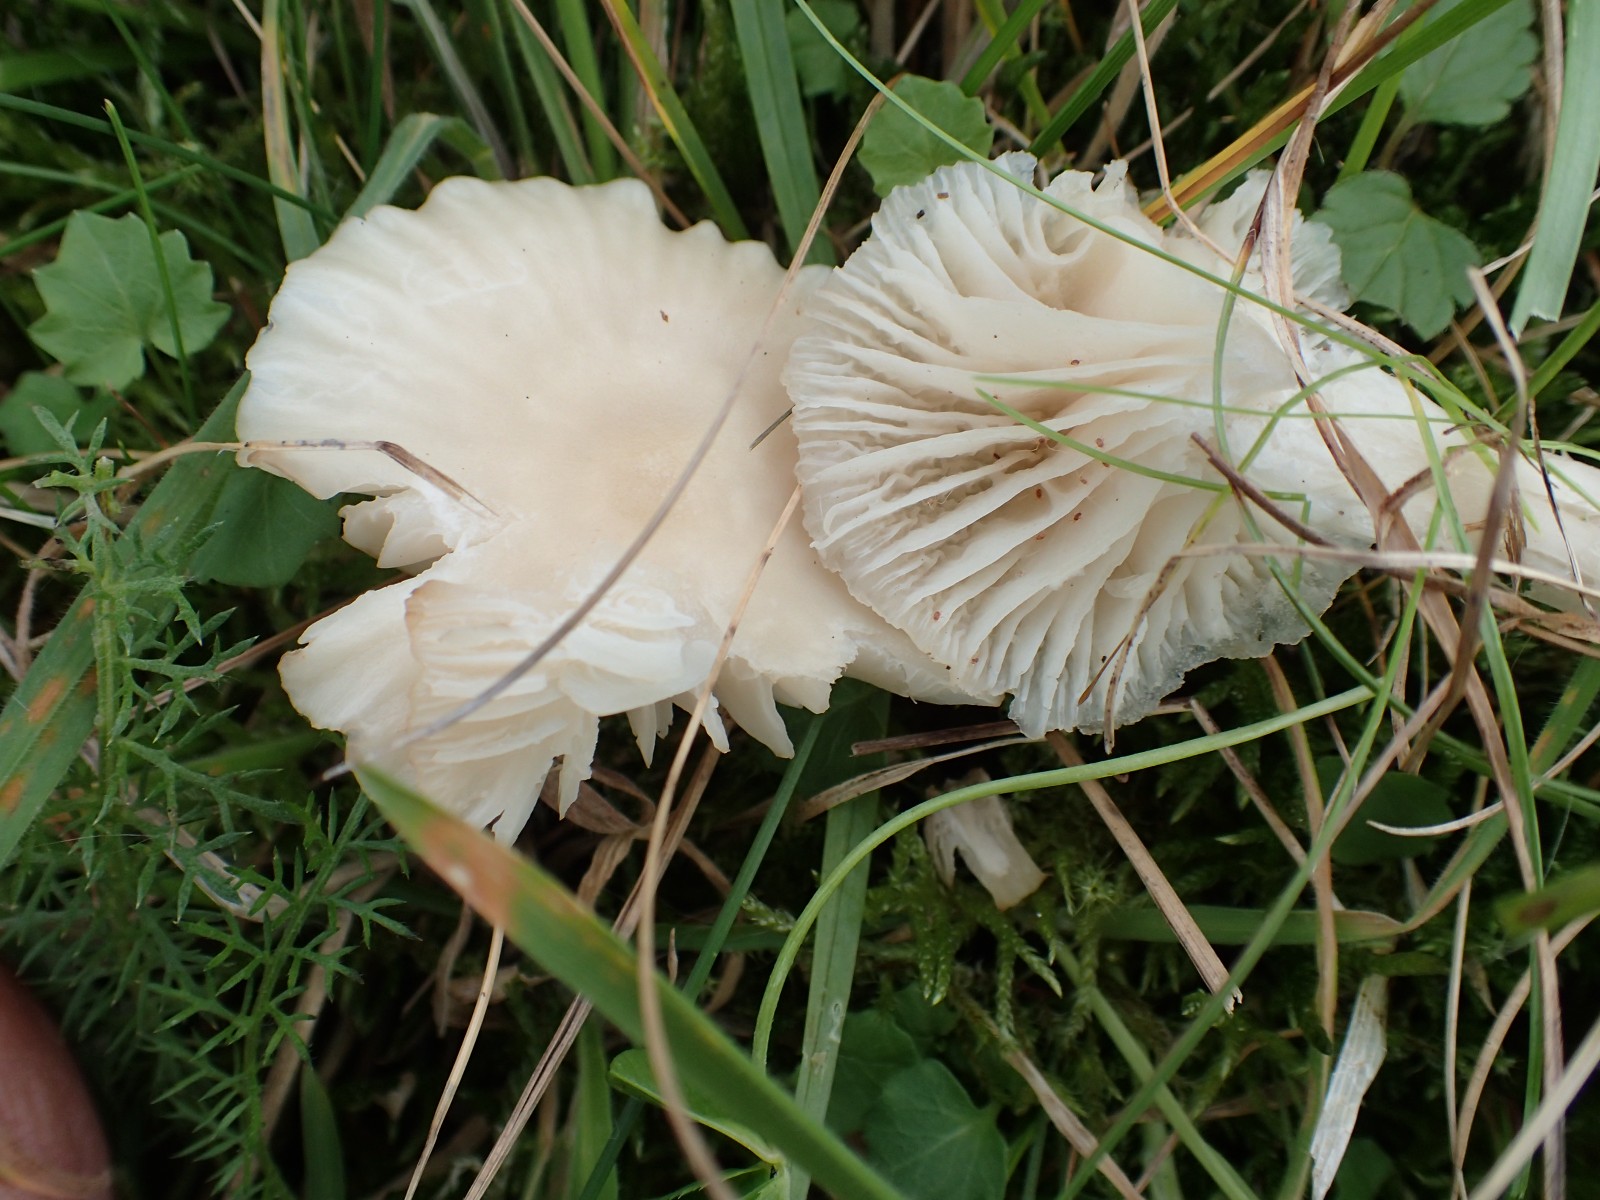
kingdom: Fungi
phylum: Basidiomycota
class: Agaricomycetes
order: Agaricales
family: Hygrophoraceae
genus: Cuphophyllus
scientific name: Cuphophyllus virgineus
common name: snehvid vokshat
